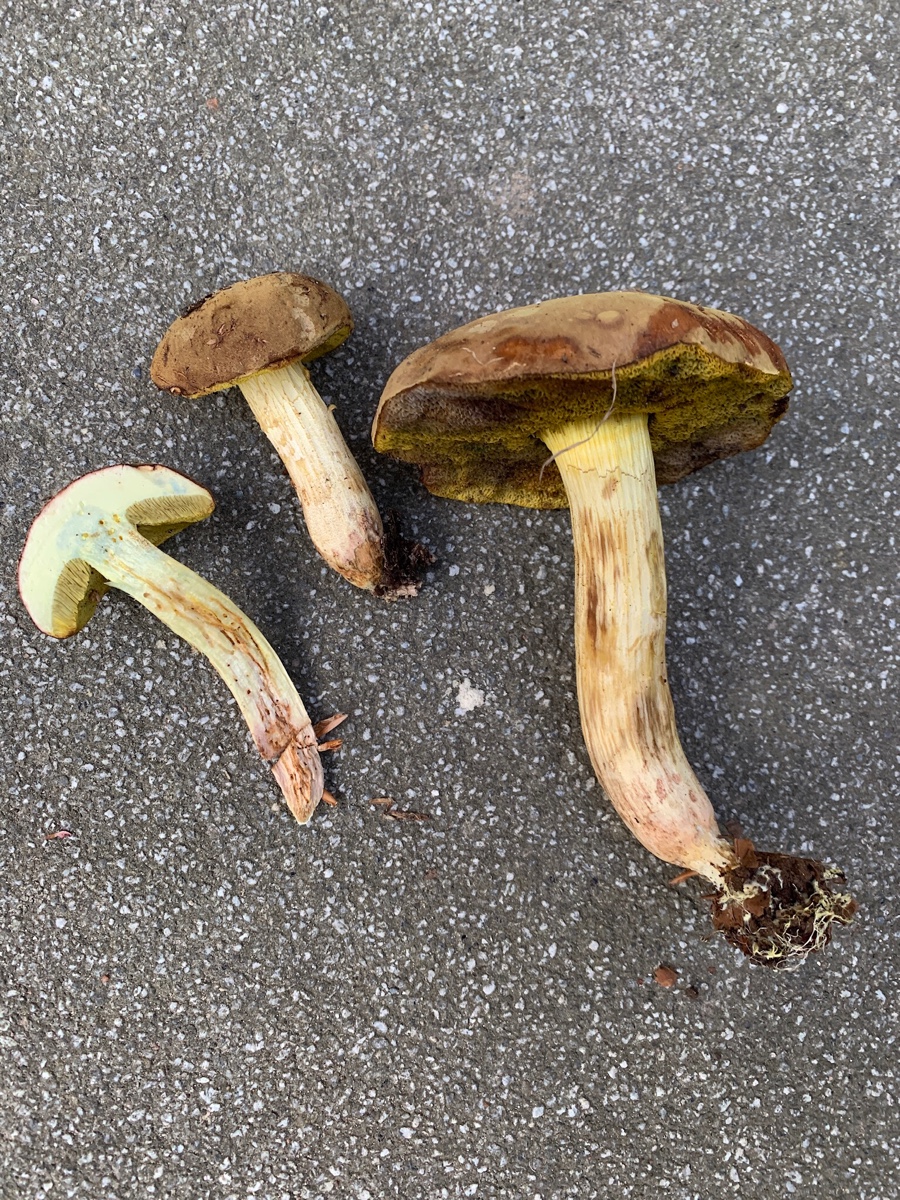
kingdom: Fungi
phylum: Basidiomycota
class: Agaricomycetes
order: Boletales
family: Boletaceae
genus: Xerocomus
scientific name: Xerocomus ferrugineus
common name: vaskeskinds-rørhat
